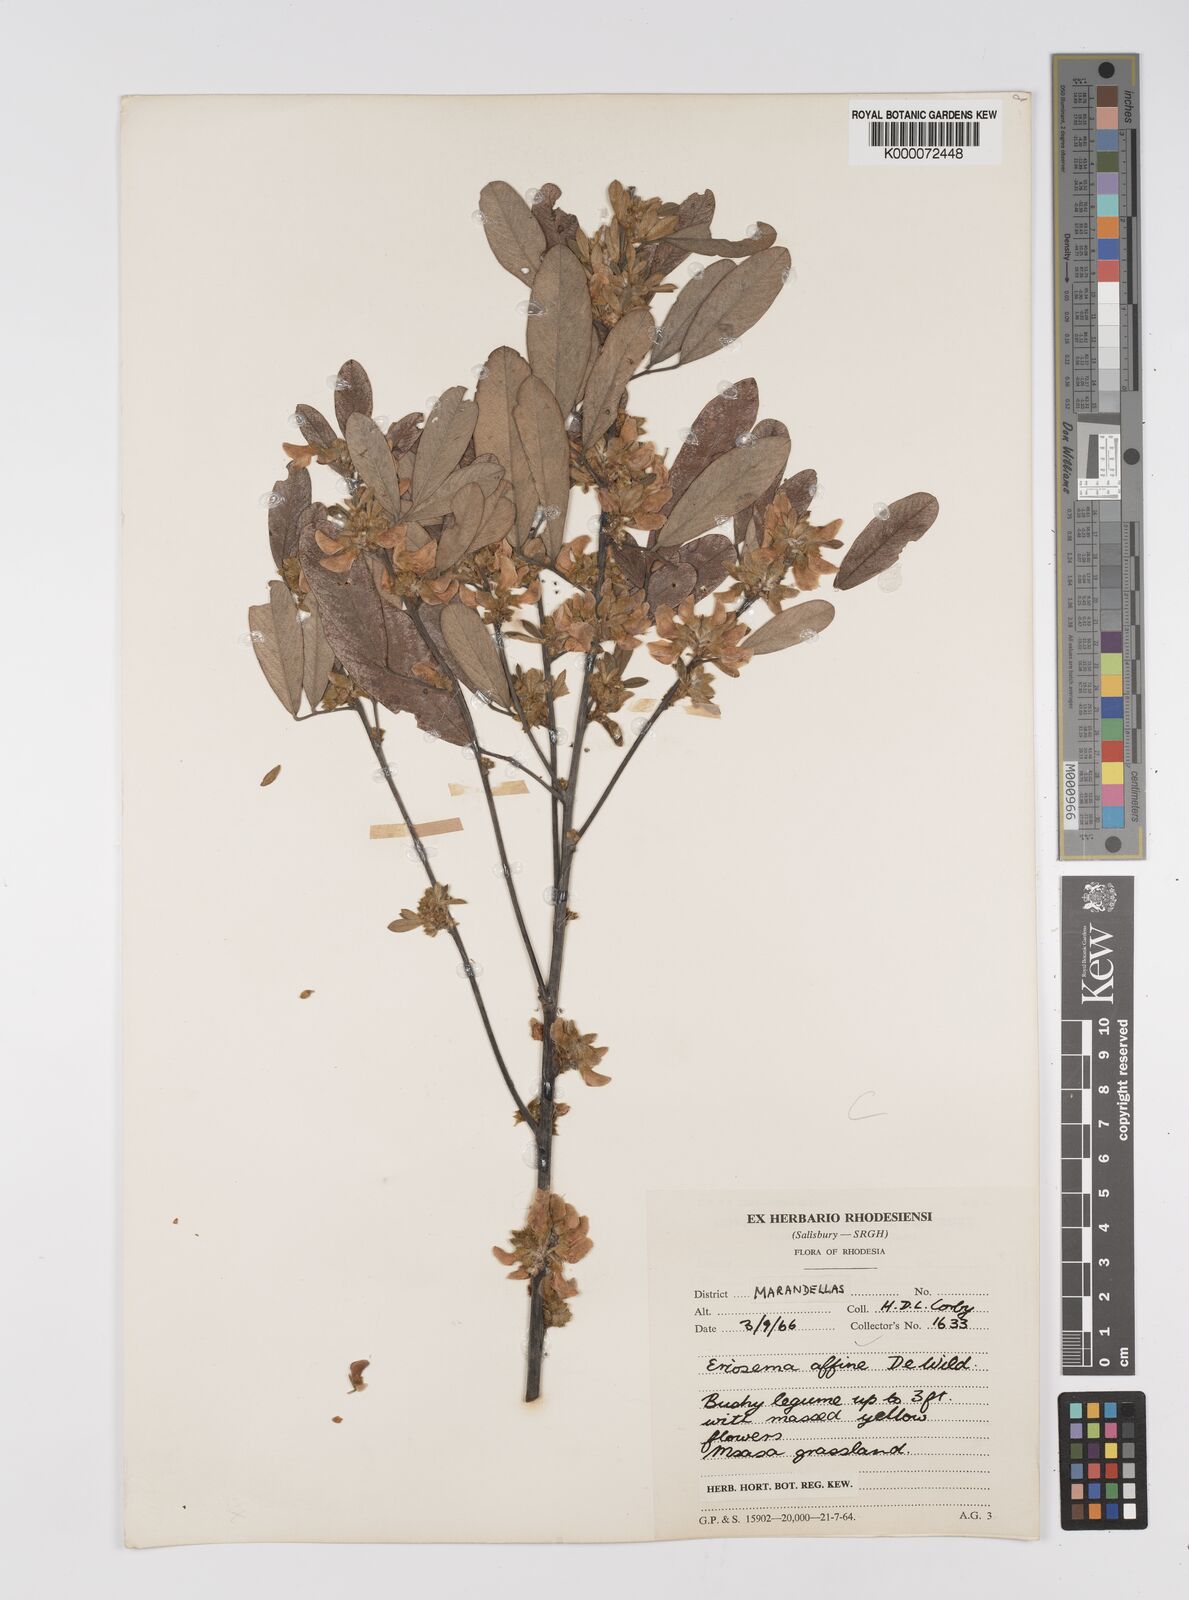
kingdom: Plantae
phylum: Tracheophyta
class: Magnoliopsida
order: Fabales
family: Fabaceae
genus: Eriosema
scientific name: Eriosema affine
